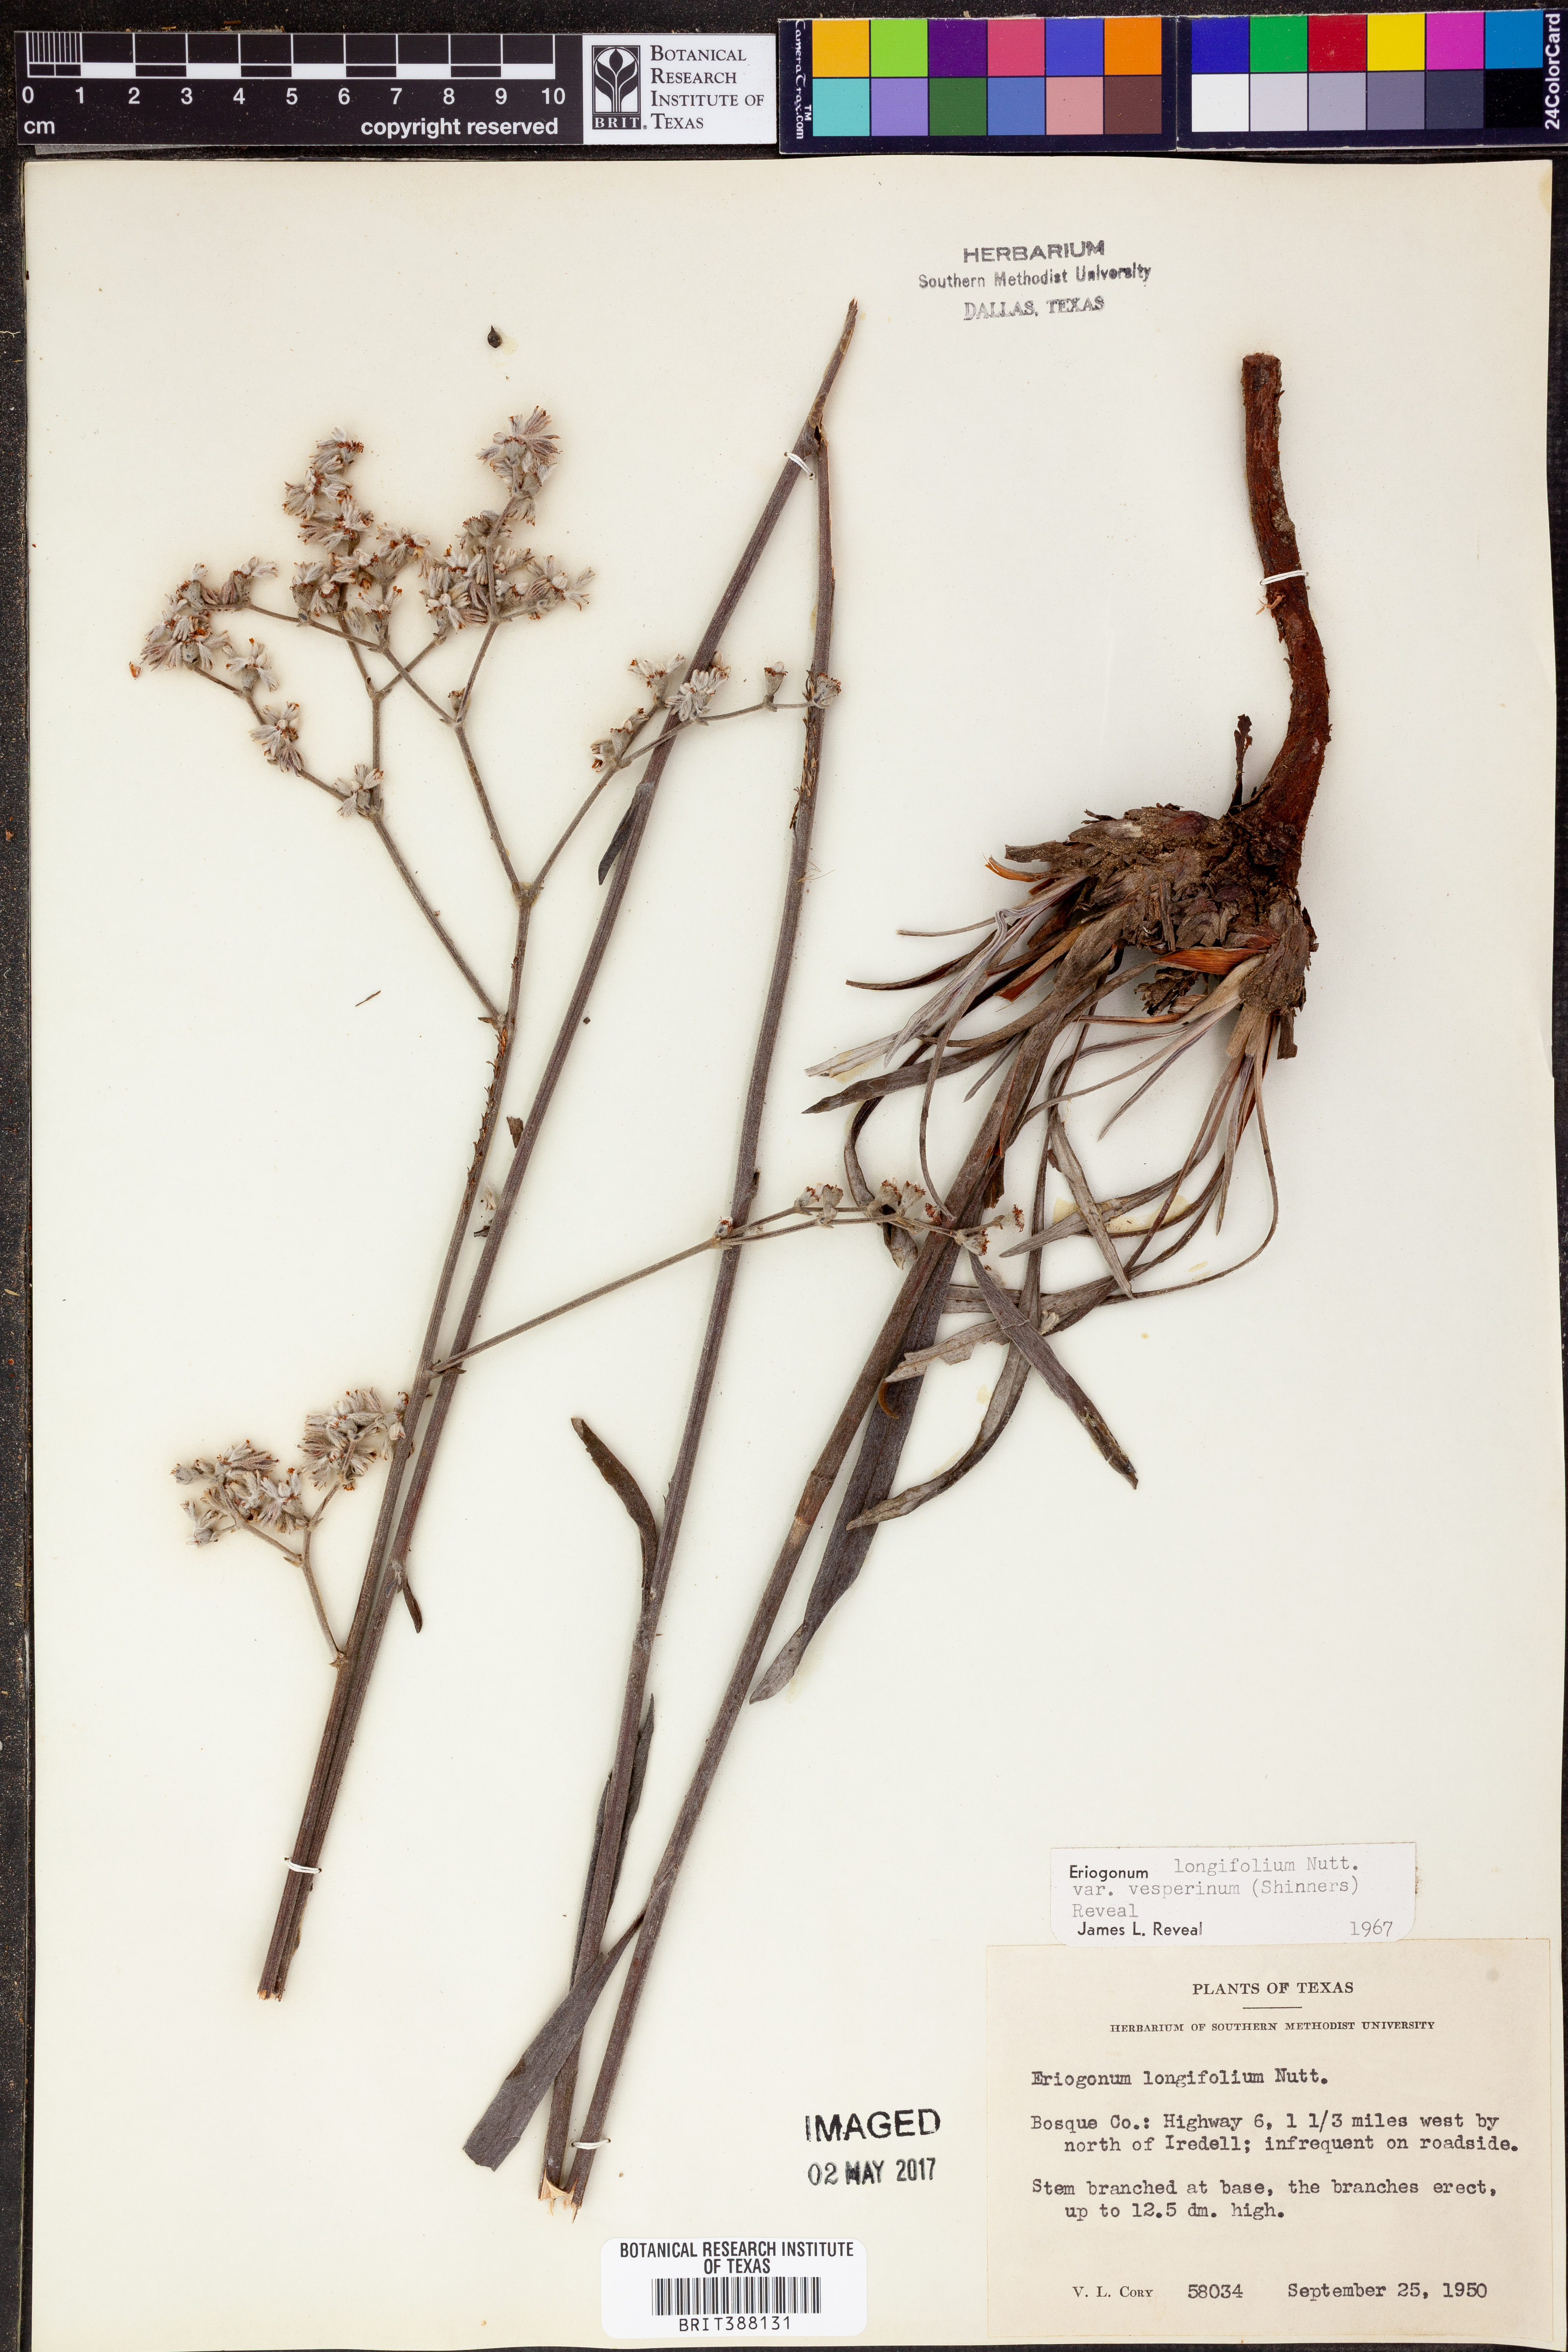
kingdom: Plantae
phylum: Tracheophyta
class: Magnoliopsida
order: Caryophyllales
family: Polygonaceae
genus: Eriogonum
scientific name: Eriogonum longifolium
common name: Longleaf wild buckwheat
